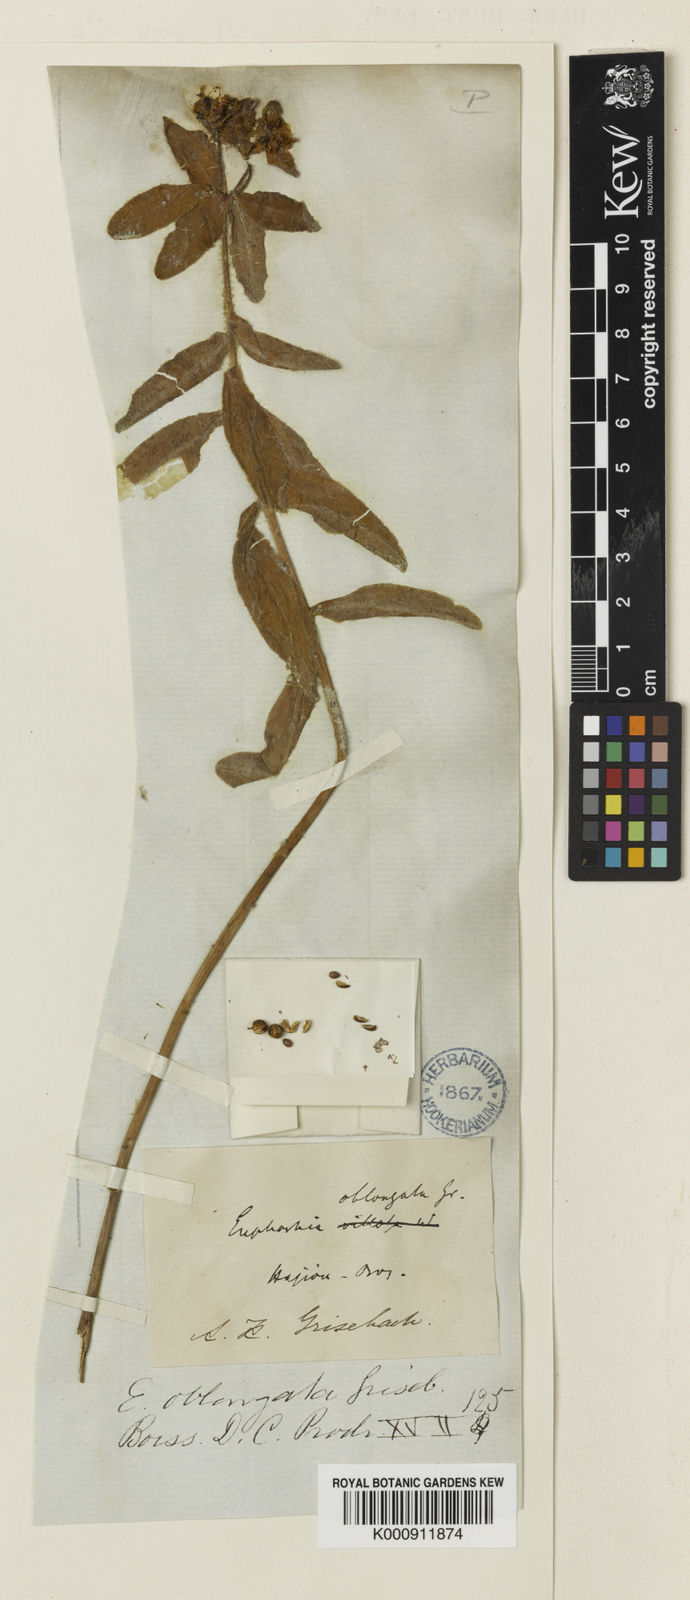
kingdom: Plantae
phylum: Tracheophyta
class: Magnoliopsida
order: Malpighiales
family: Euphorbiaceae
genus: Euphorbia
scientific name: Euphorbia oblongata
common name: Balkan spurge
